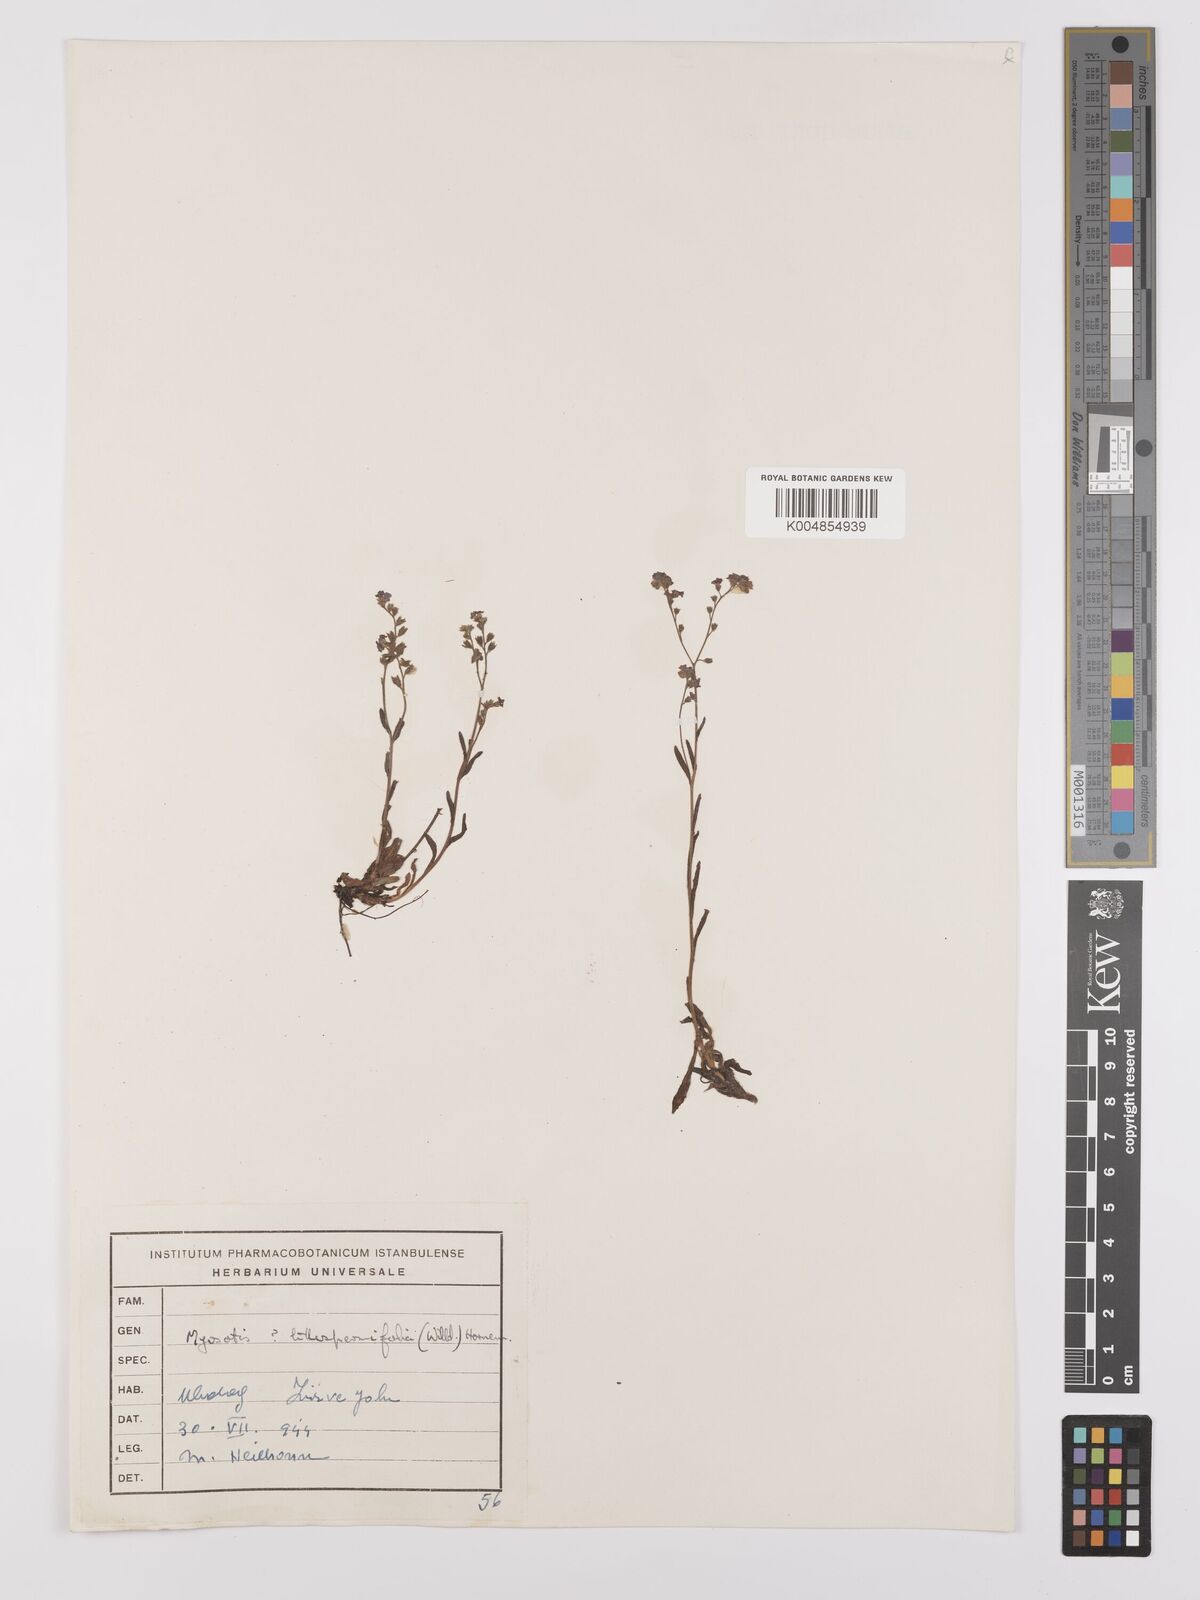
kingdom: Plantae
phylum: Tracheophyta
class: Magnoliopsida
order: Boraginales
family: Boraginaceae
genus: Myosotis
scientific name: Myosotis
